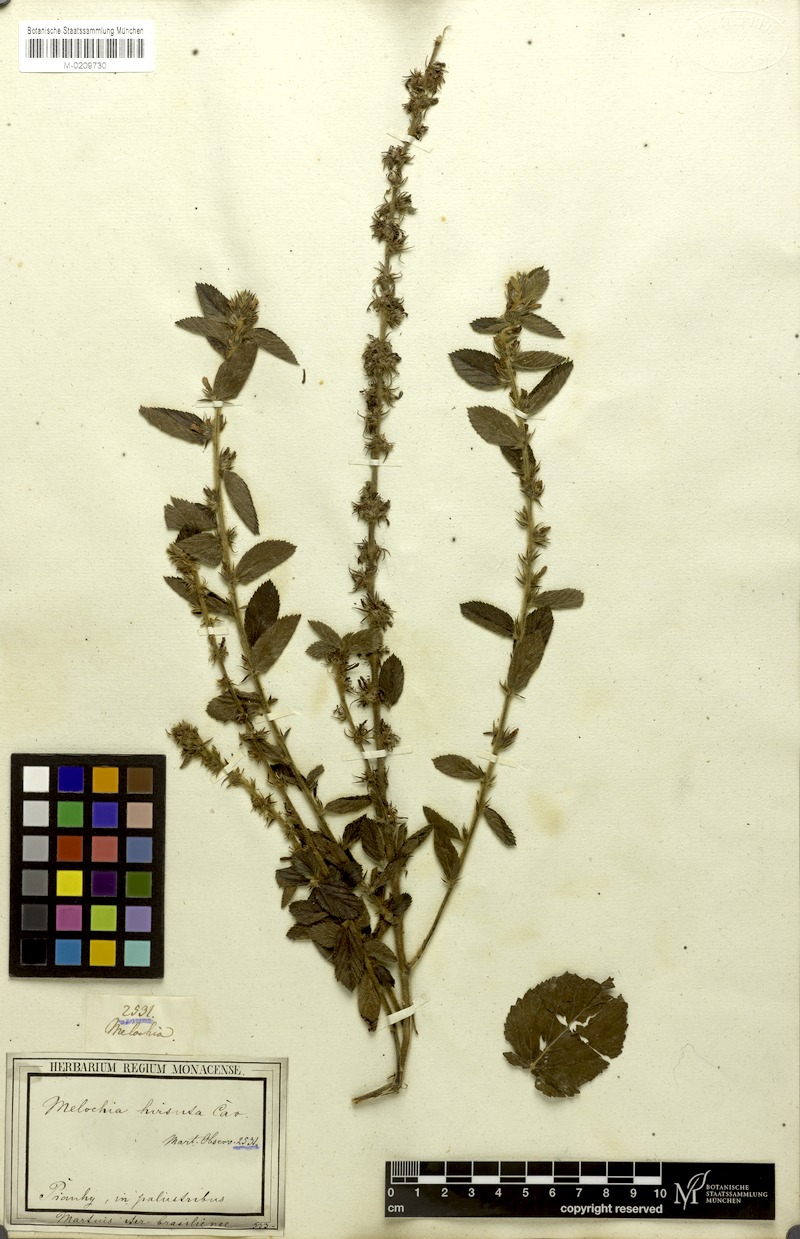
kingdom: Plantae
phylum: Tracheophyta
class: Magnoliopsida
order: Malvales
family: Malvaceae
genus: Melochia
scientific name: Melochia spicata
